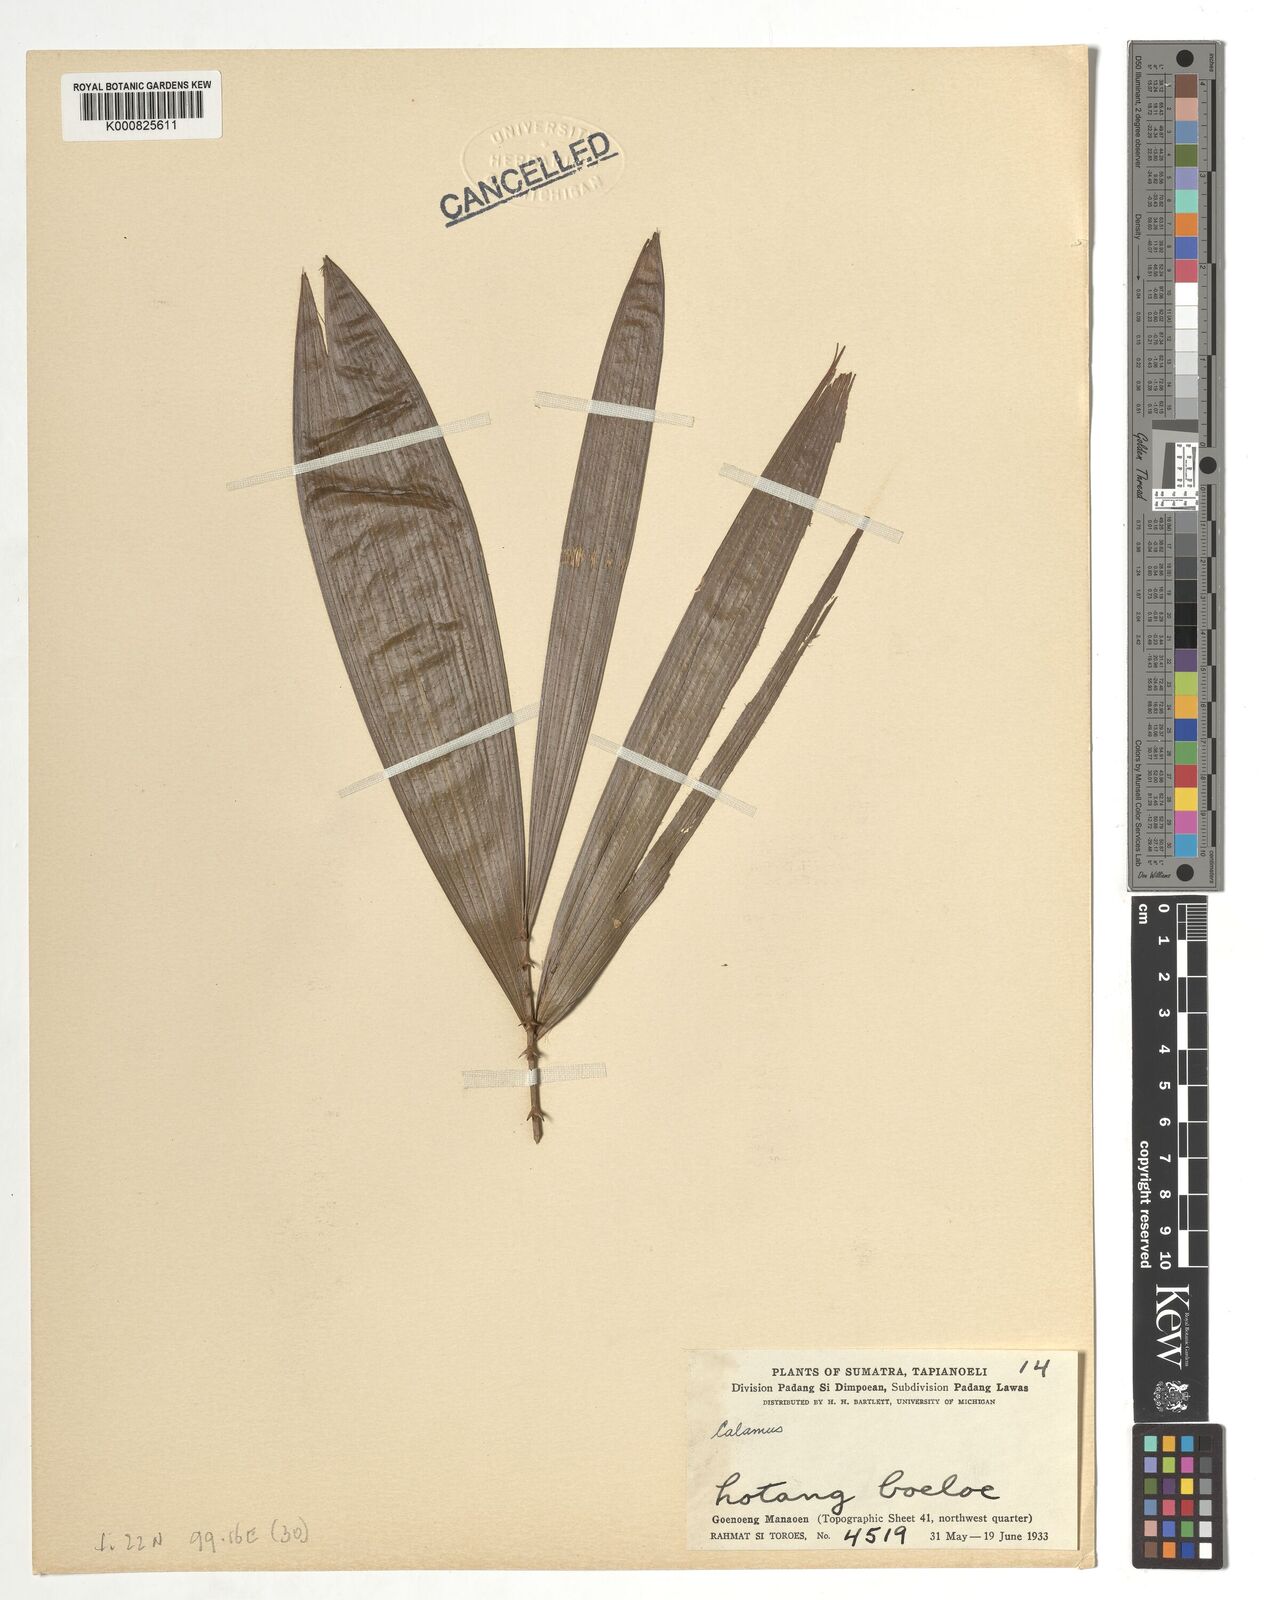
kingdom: Plantae
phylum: Tracheophyta
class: Liliopsida
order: Arecales
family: Arecaceae
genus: Calamus
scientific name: Calamus
